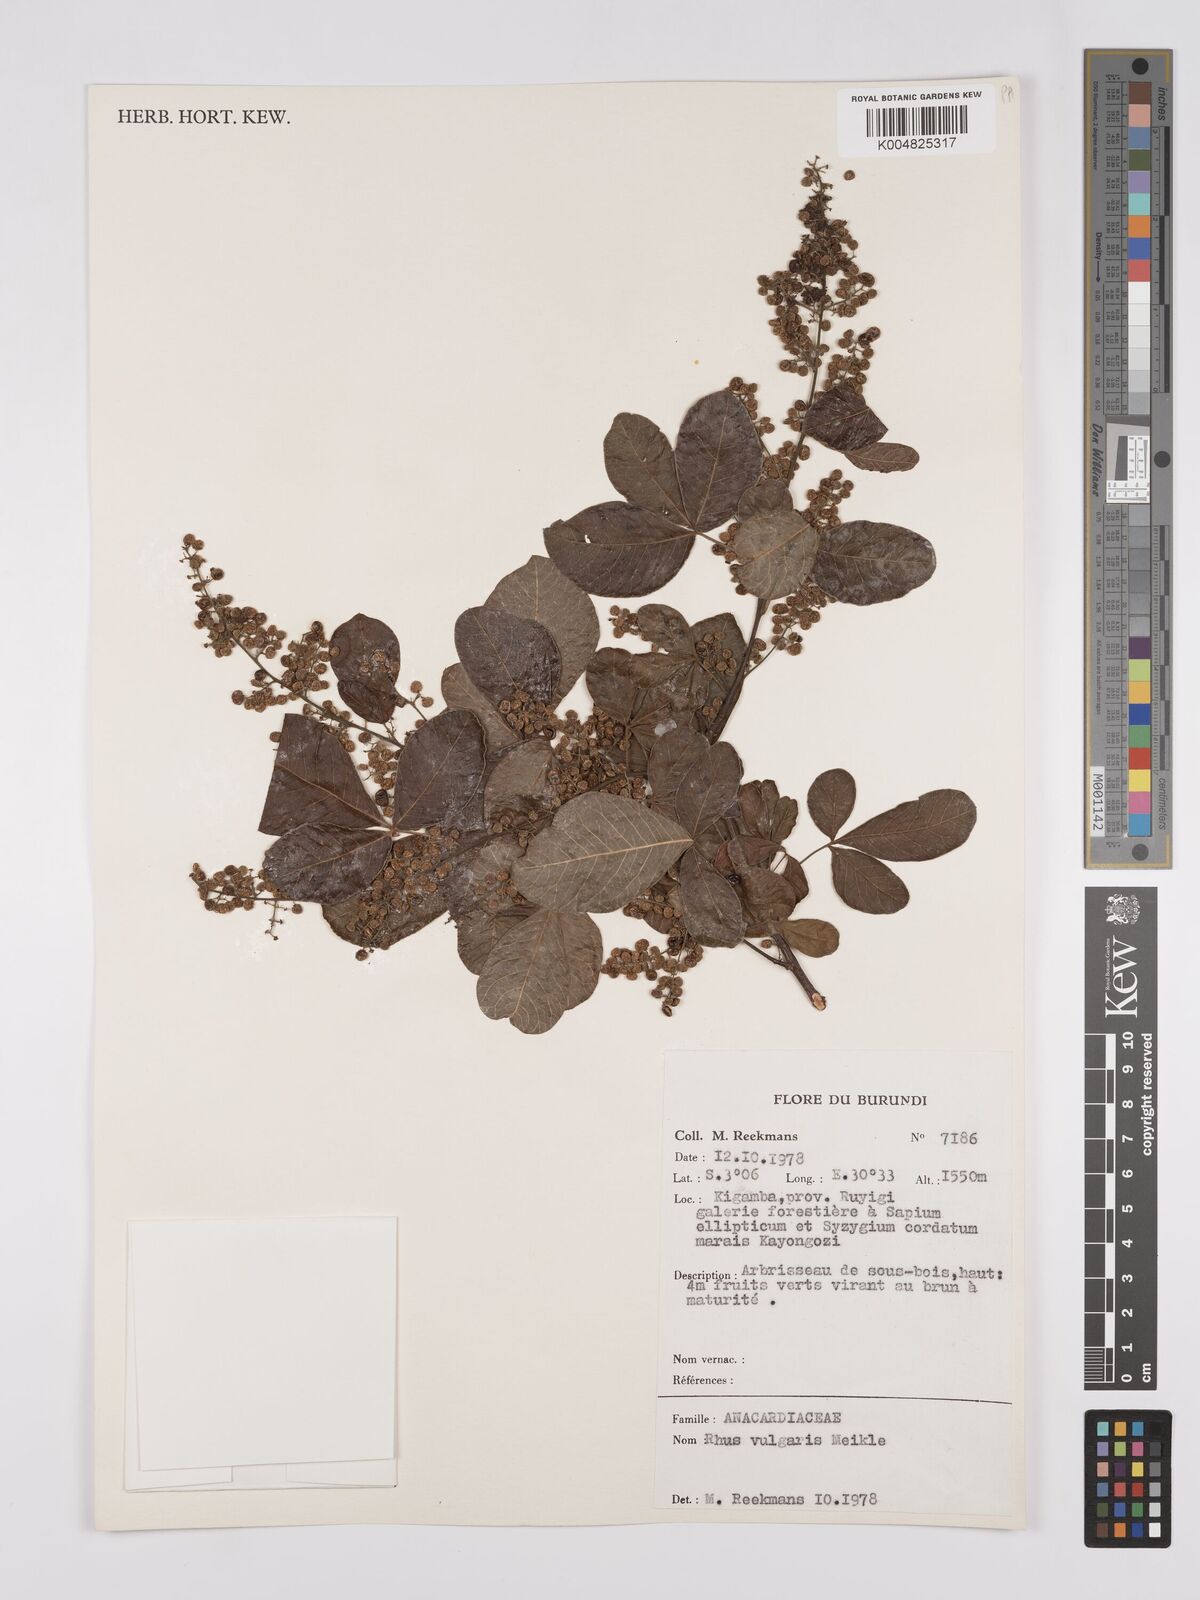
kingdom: Plantae
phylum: Tracheophyta
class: Magnoliopsida
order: Sapindales
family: Anacardiaceae
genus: Searsia
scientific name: Searsia pyroides
